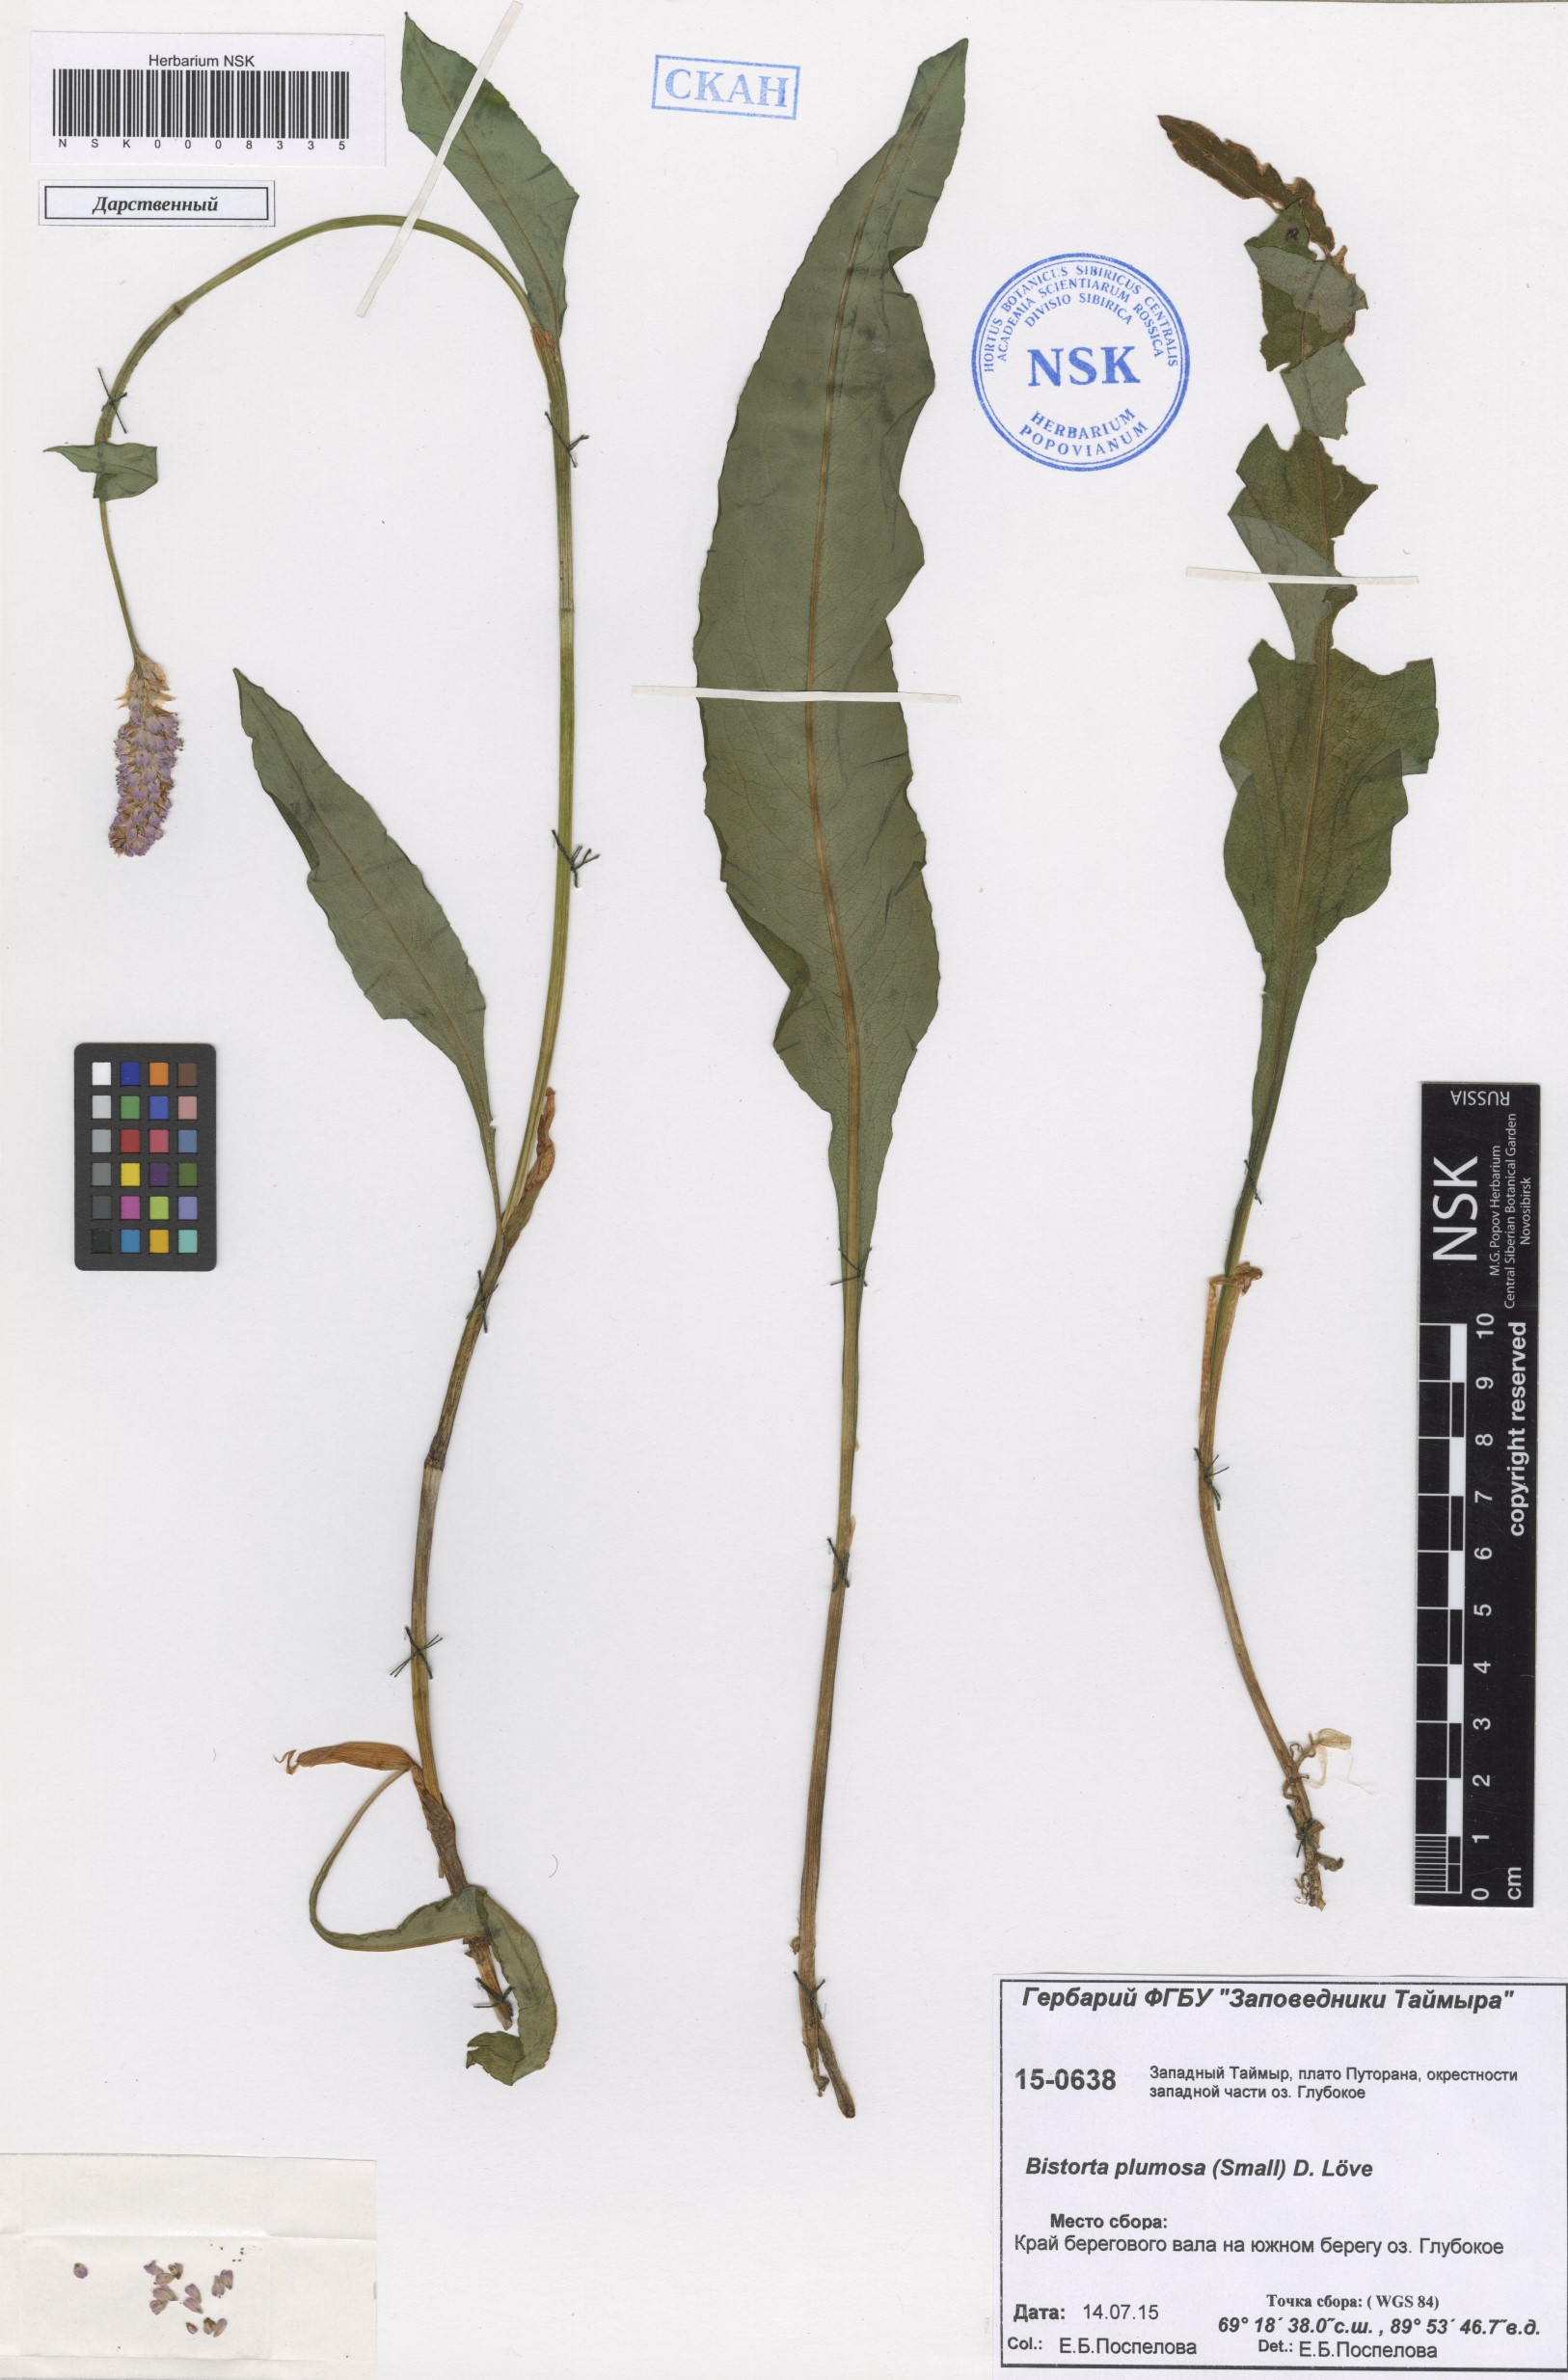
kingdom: Plantae
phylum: Tracheophyta
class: Magnoliopsida
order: Caryophyllales
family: Polygonaceae
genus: Bistorta
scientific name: Bistorta plumosa
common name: Meadow bistort
